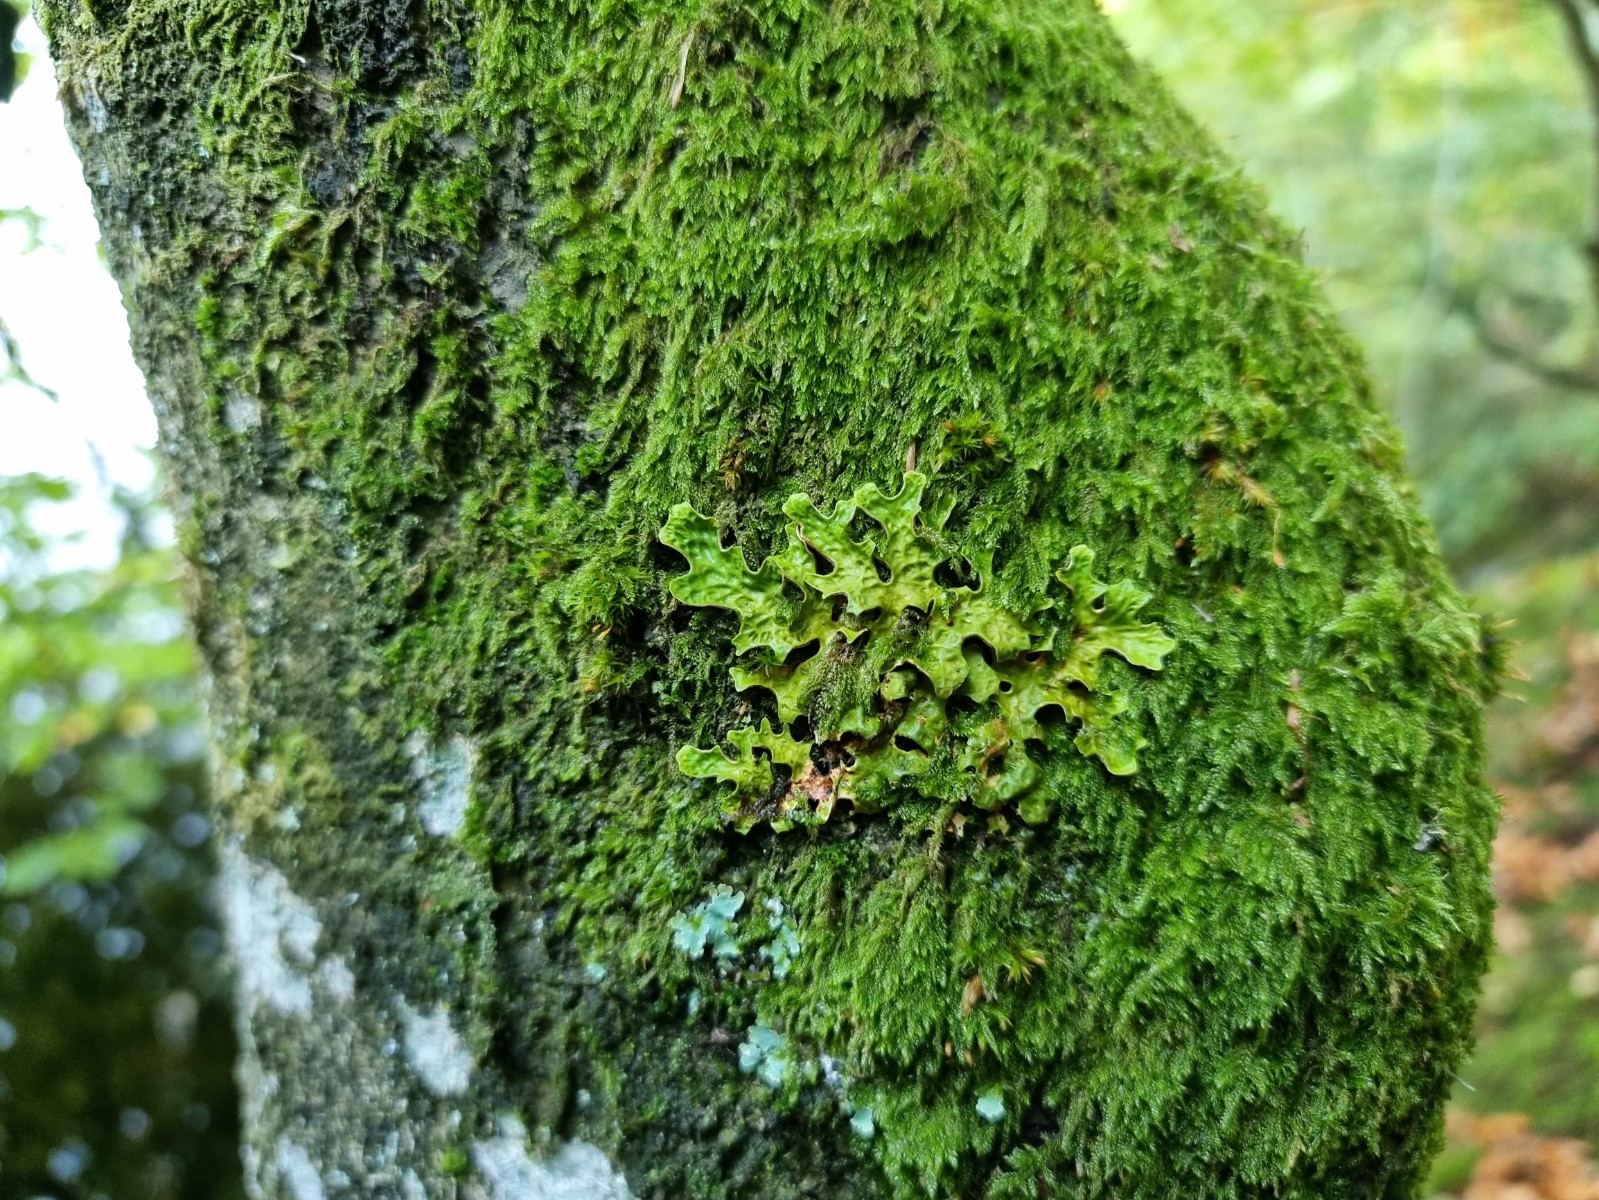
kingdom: Fungi
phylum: Ascomycota
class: Lecanoromycetes
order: Peltigerales
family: Lobariaceae
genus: Lobaria
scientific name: Lobaria pulmonaria
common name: almindelig lungelav
